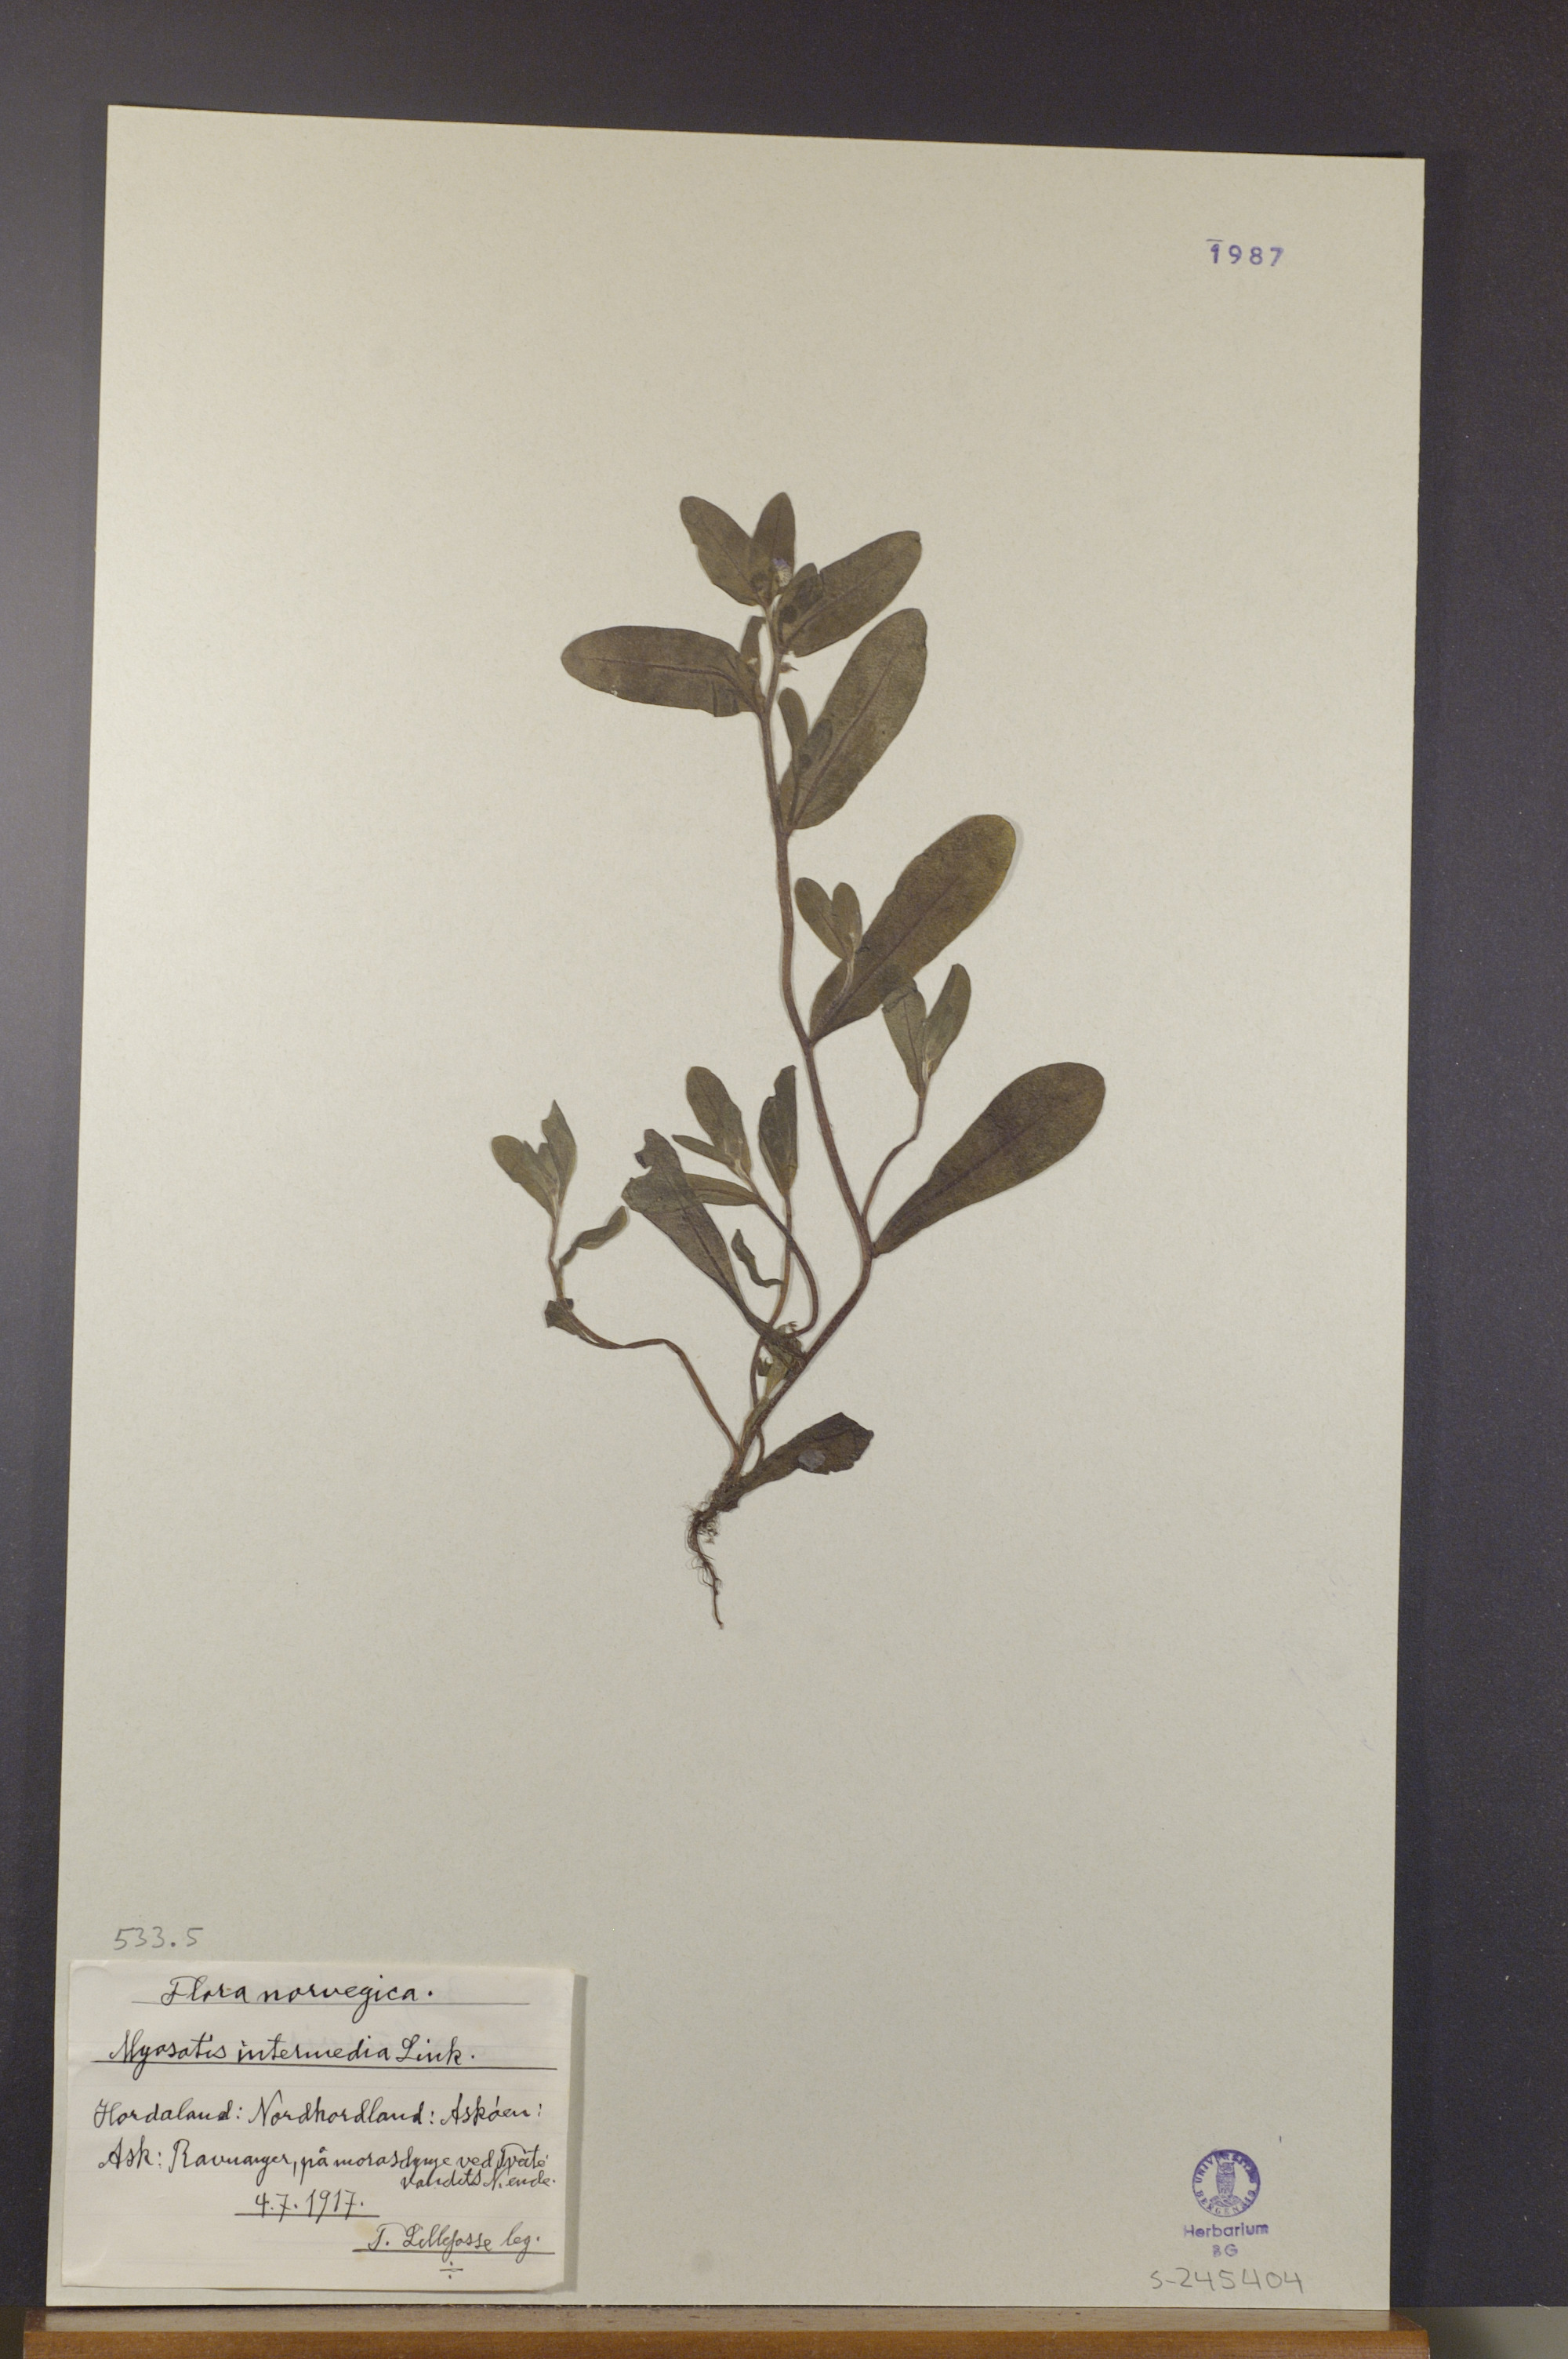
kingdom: Plantae
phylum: Tracheophyta
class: Magnoliopsida
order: Boraginales
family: Boraginaceae
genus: Myosotis
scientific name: Myosotis arvensis
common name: Field forget-me-not
